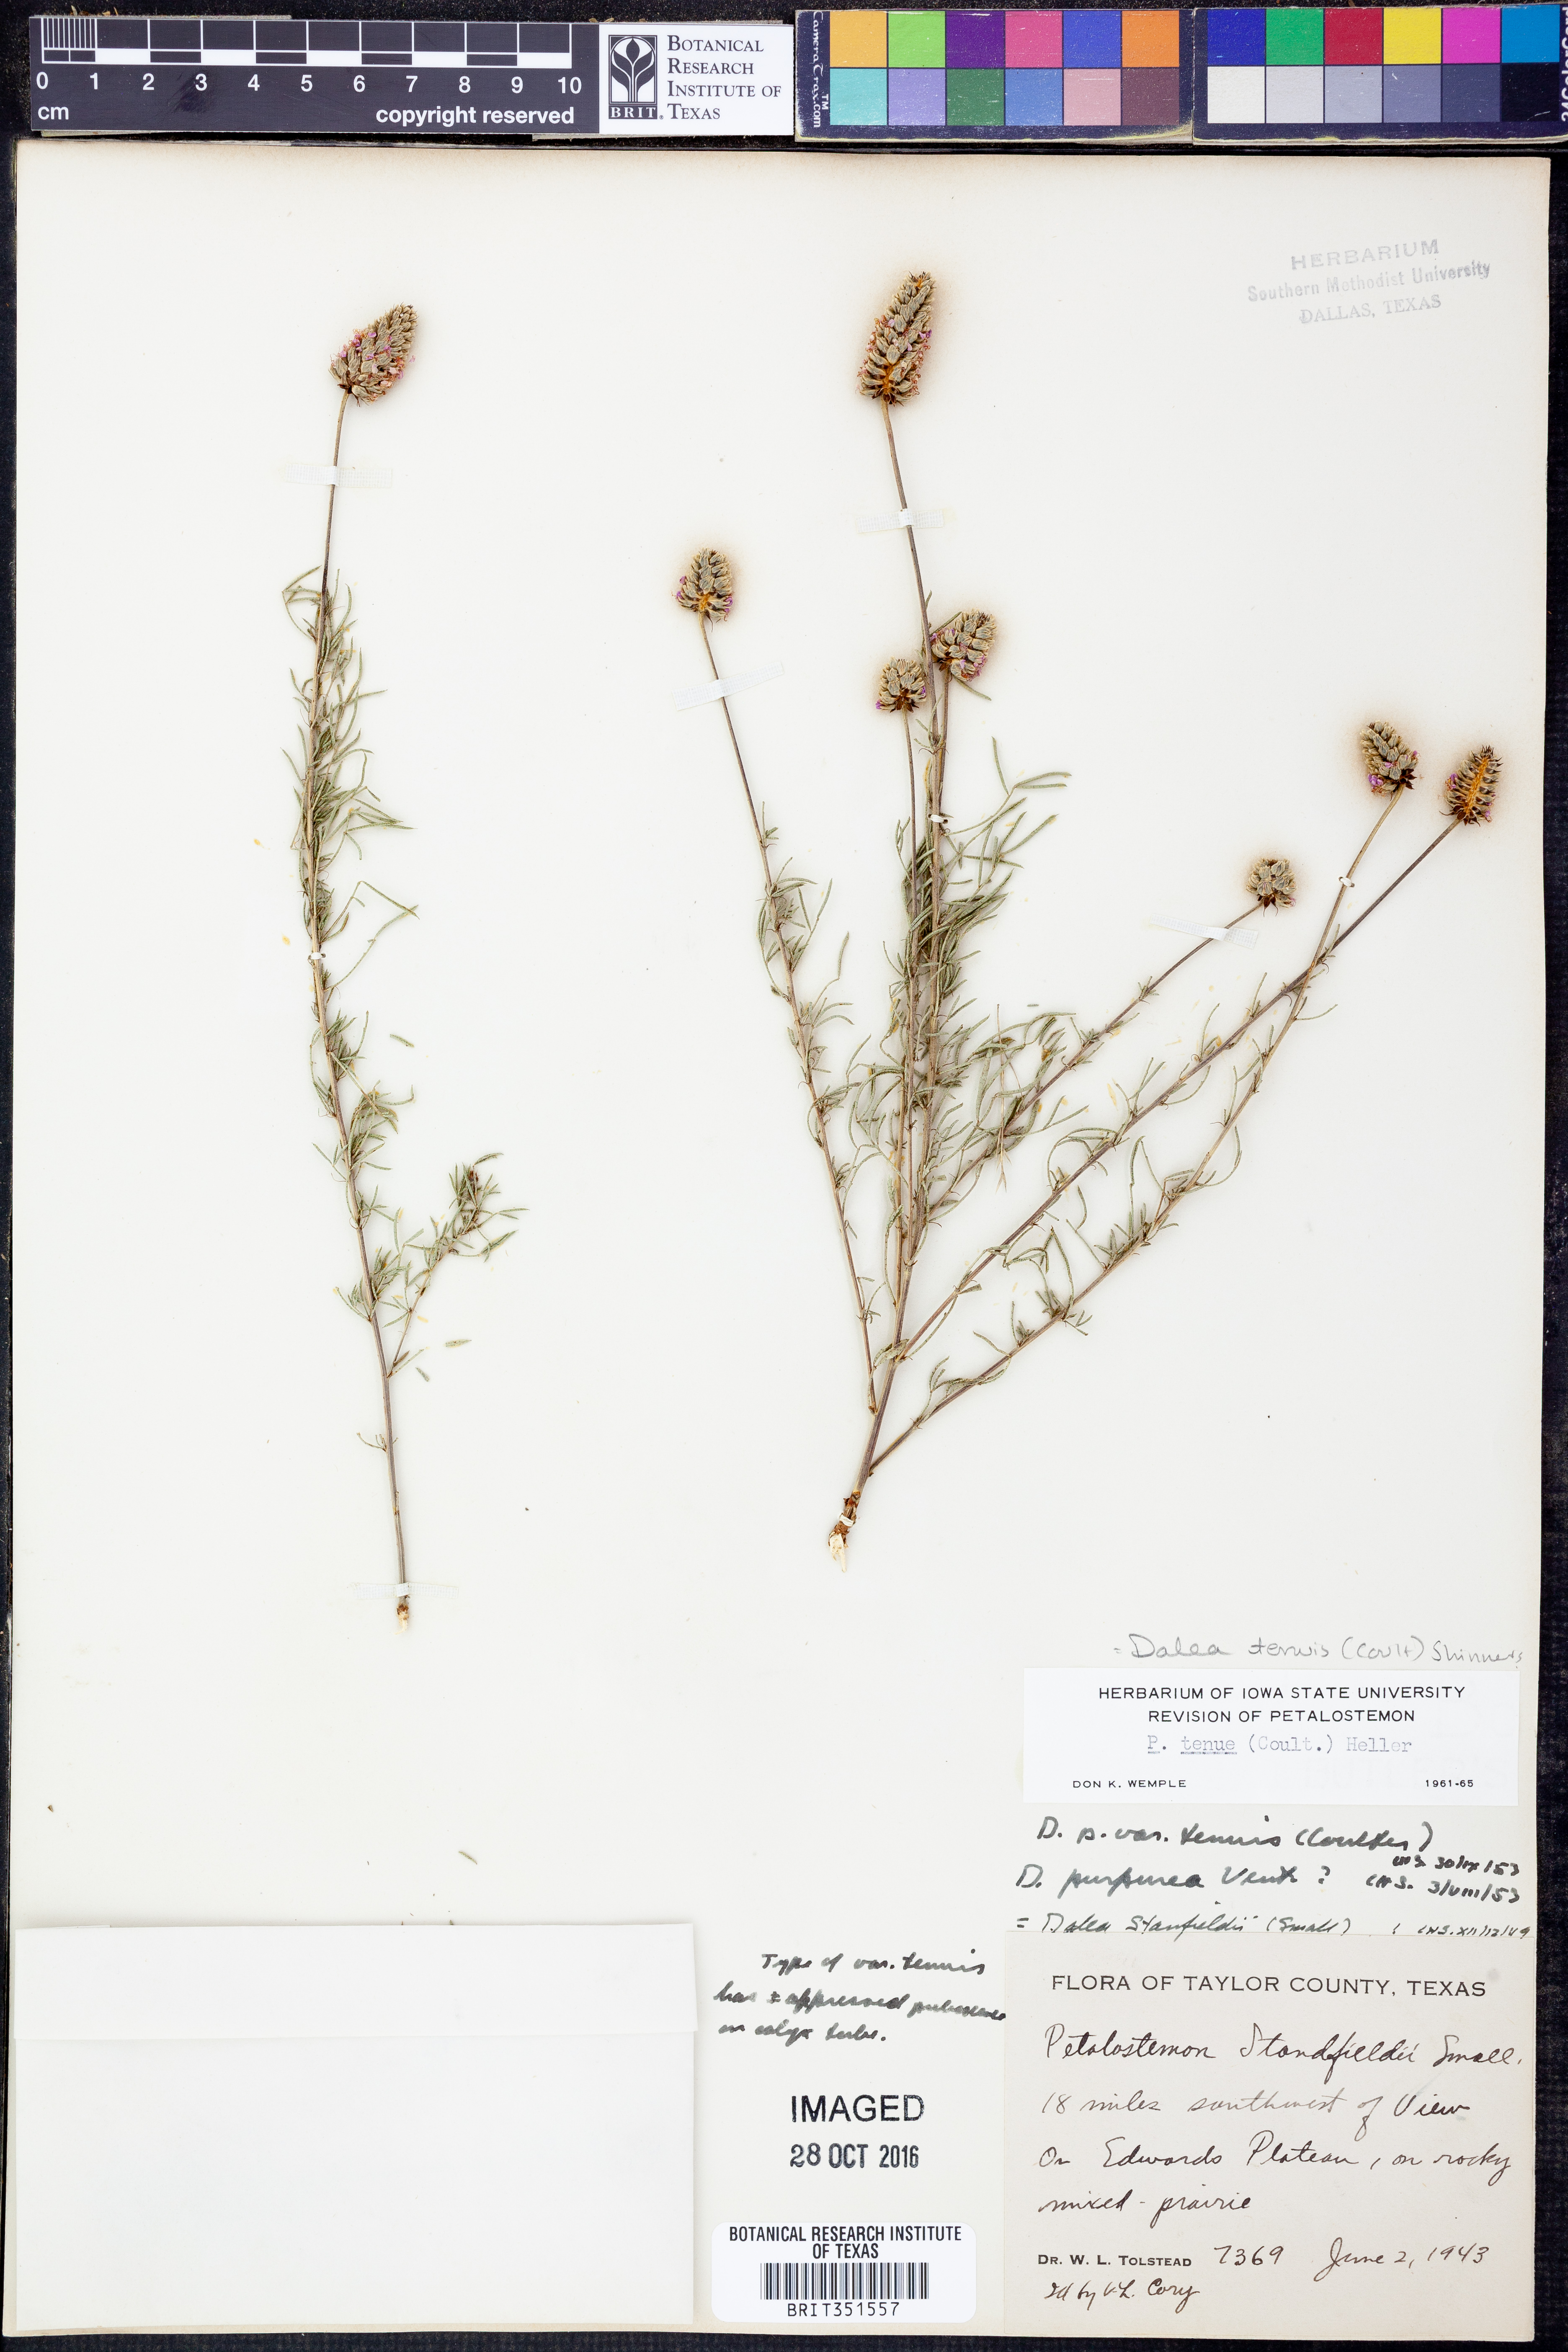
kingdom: Plantae
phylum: Tracheophyta
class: Magnoliopsida
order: Fabales
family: Fabaceae
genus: Dalea
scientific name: Dalea tenuis
